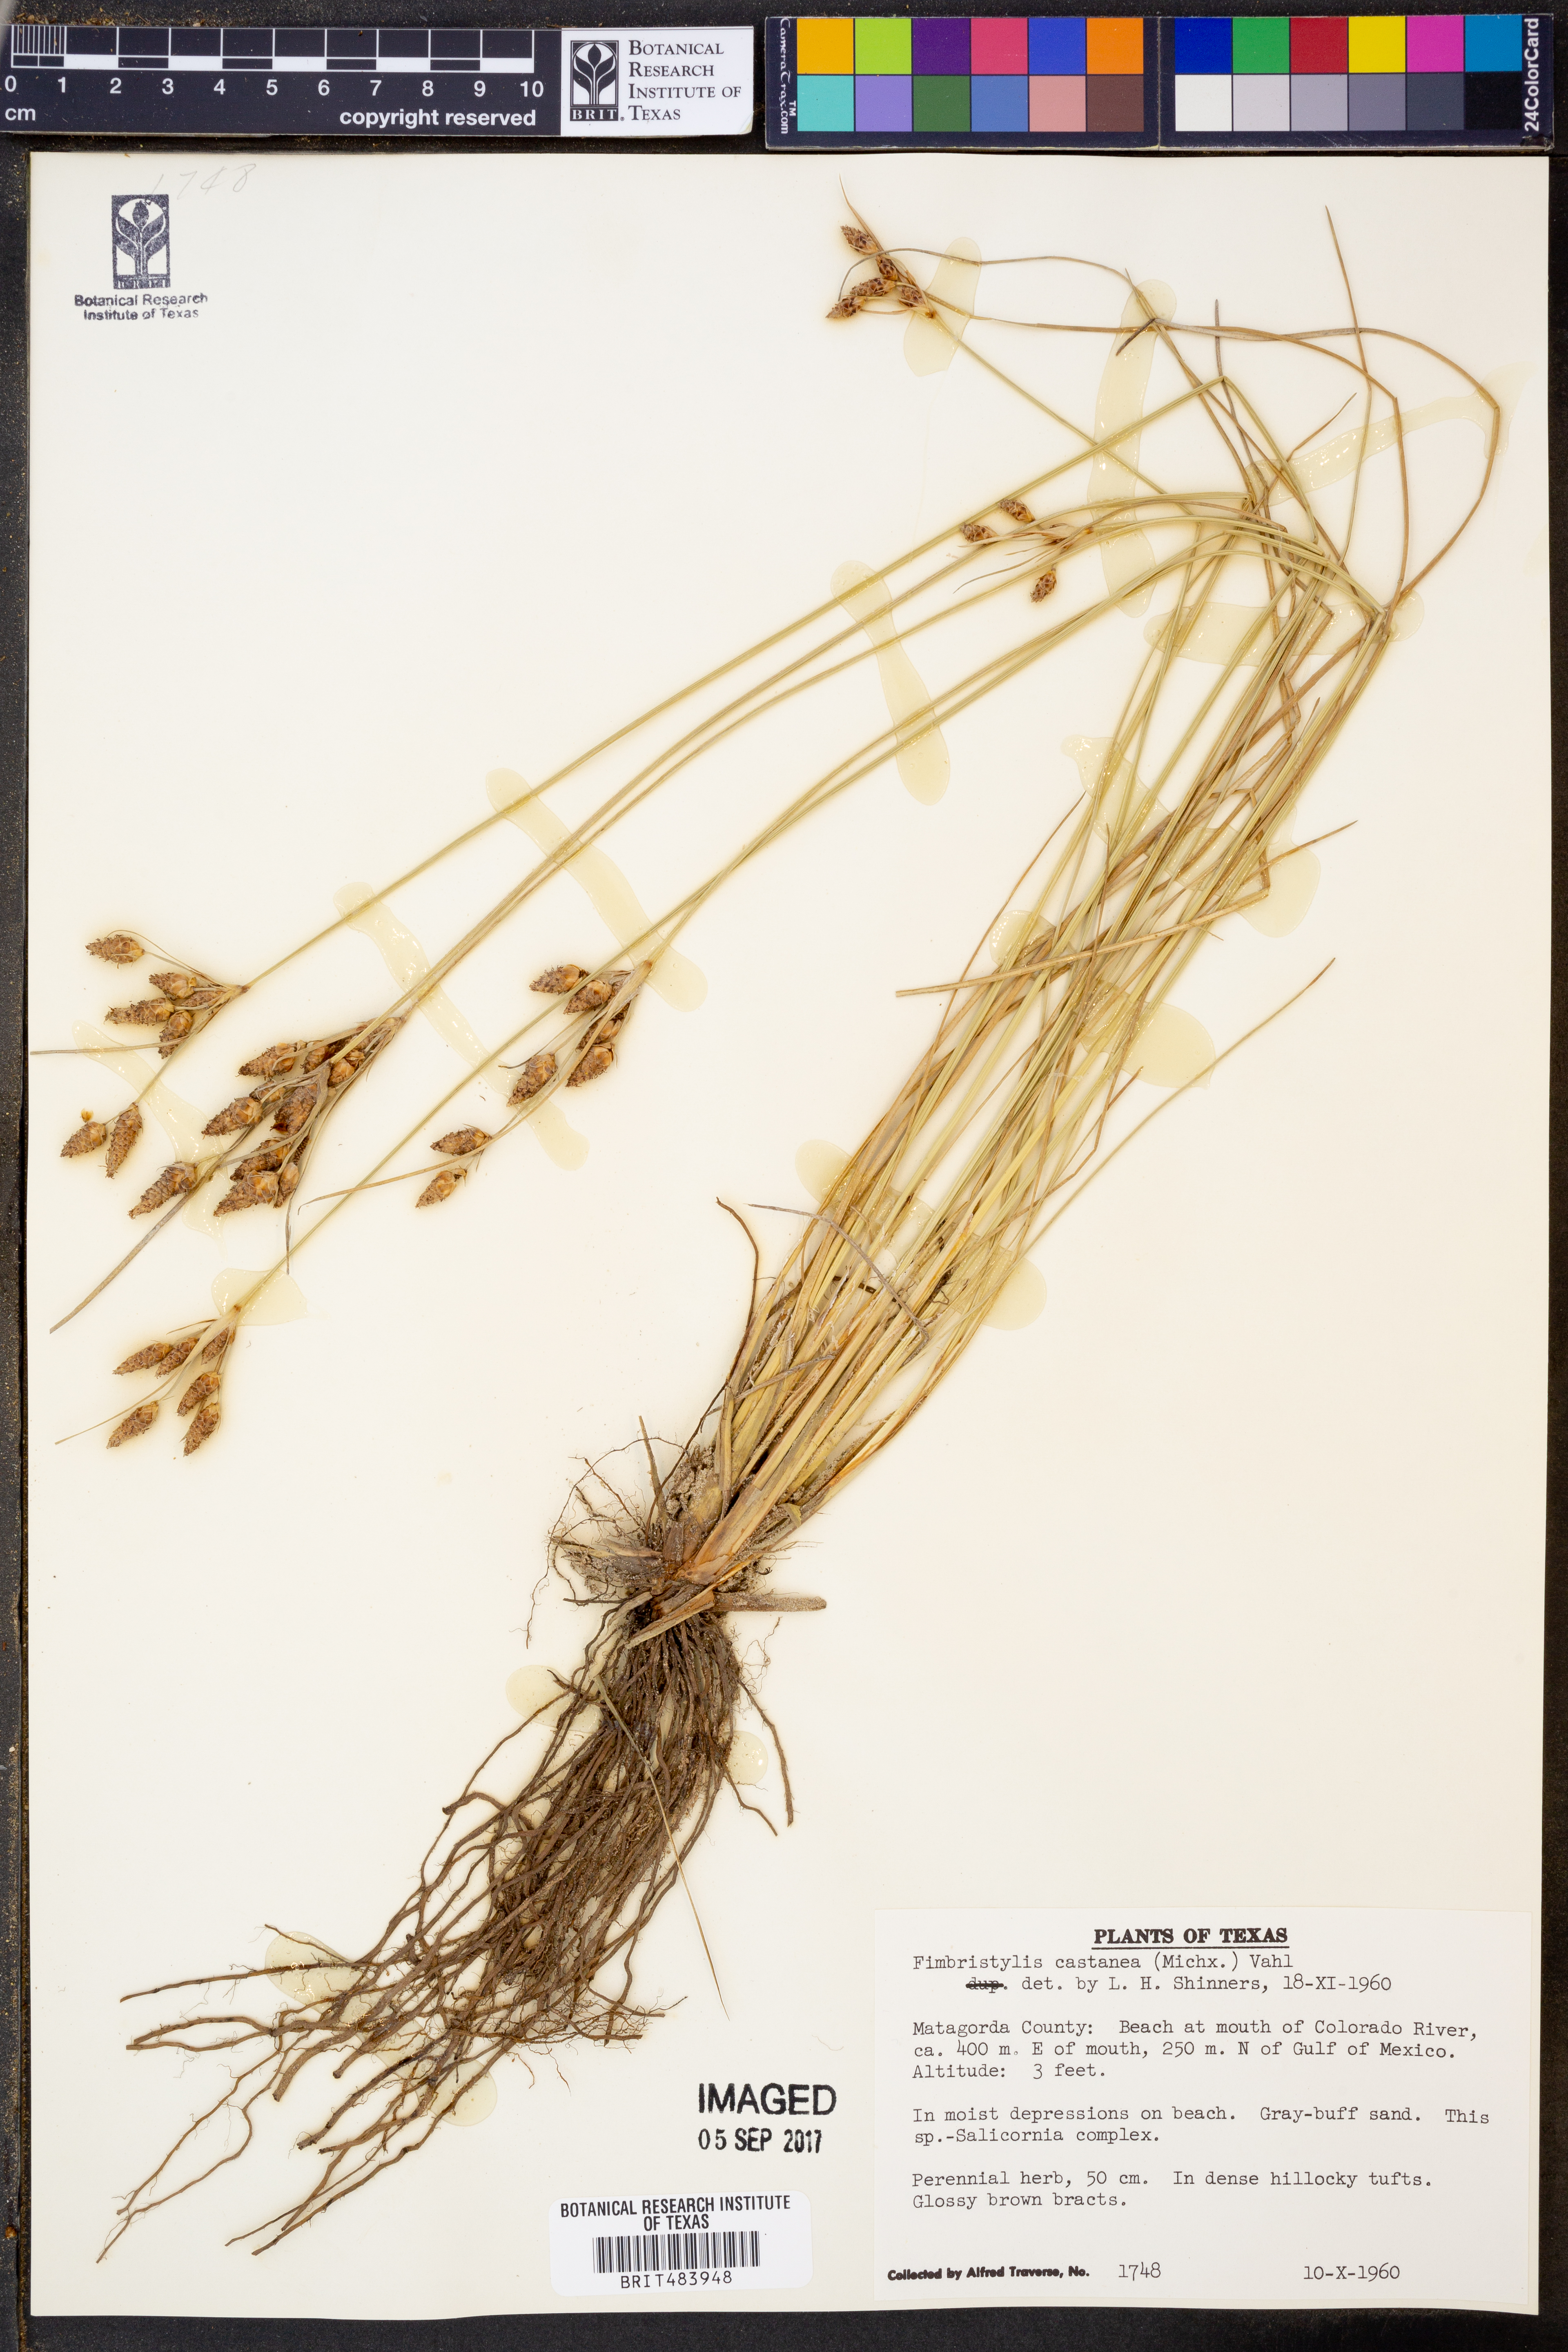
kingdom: Plantae
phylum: Tracheophyta
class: Liliopsida
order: Poales
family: Cyperaceae
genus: Fimbristylis
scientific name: Fimbristylis spadicea
